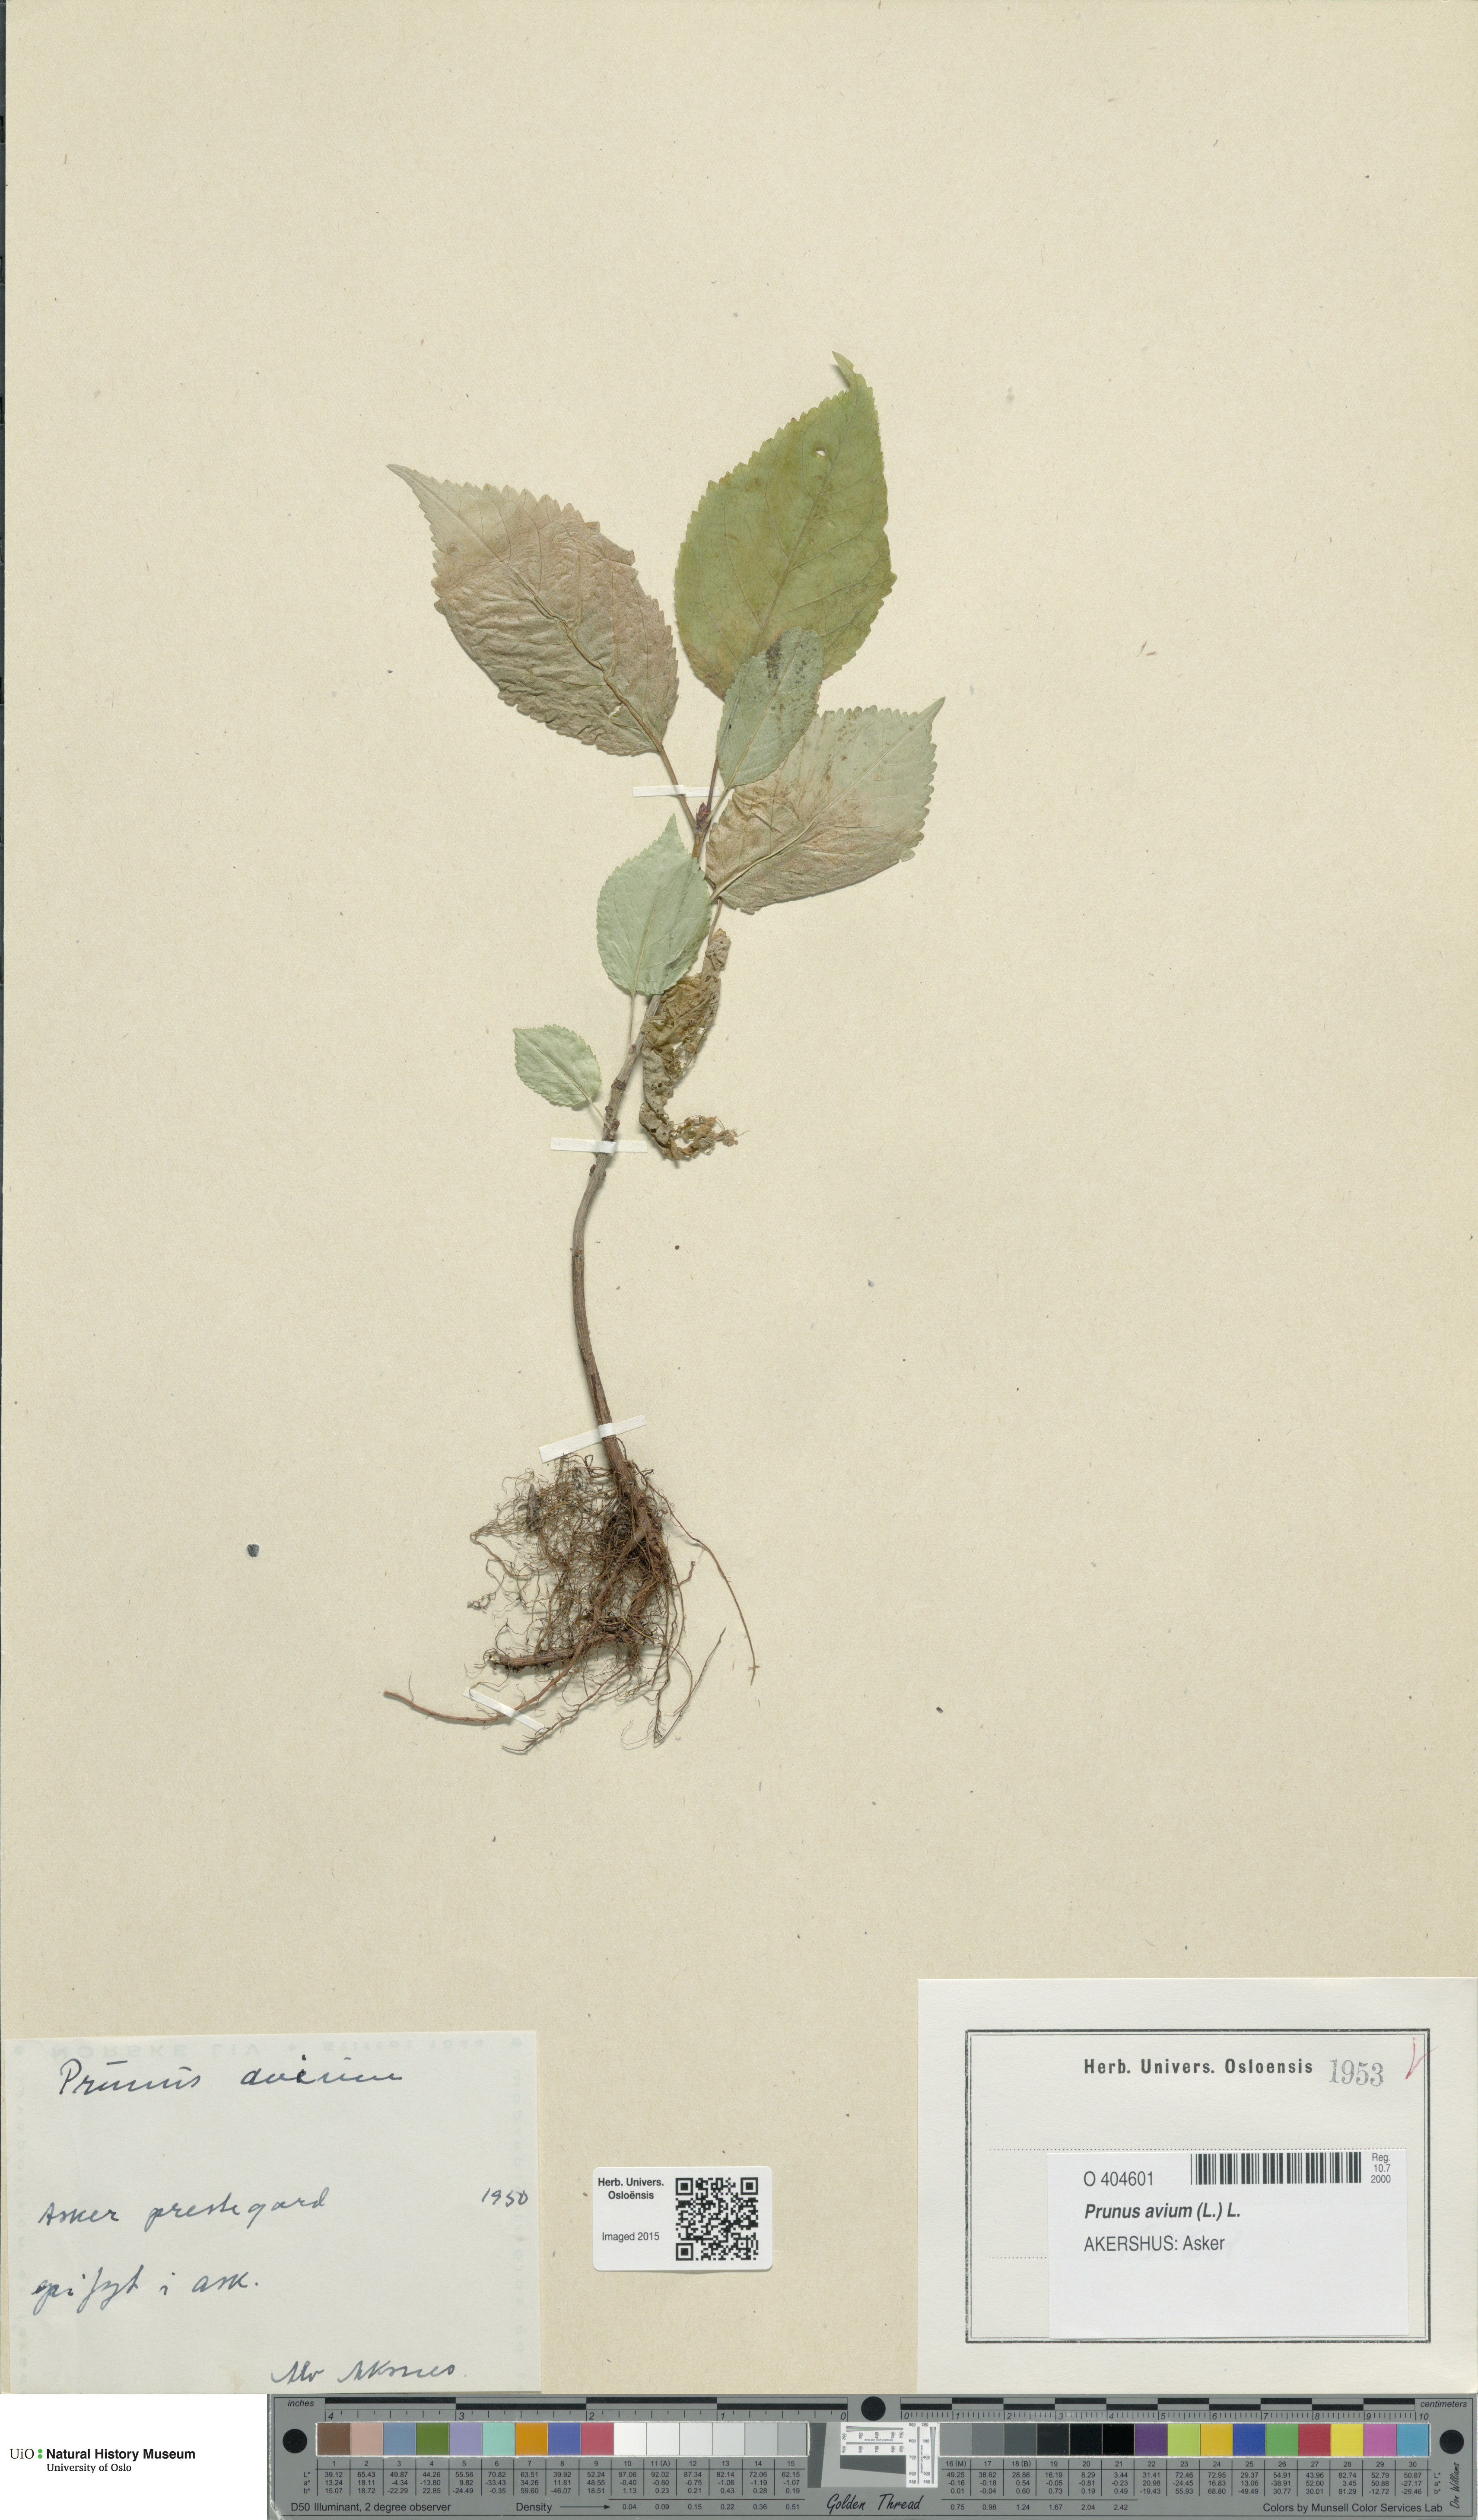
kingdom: Plantae
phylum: Tracheophyta
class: Magnoliopsida
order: Rosales
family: Rosaceae
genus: Prunus
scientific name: Prunus avium
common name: Sweet cherry
